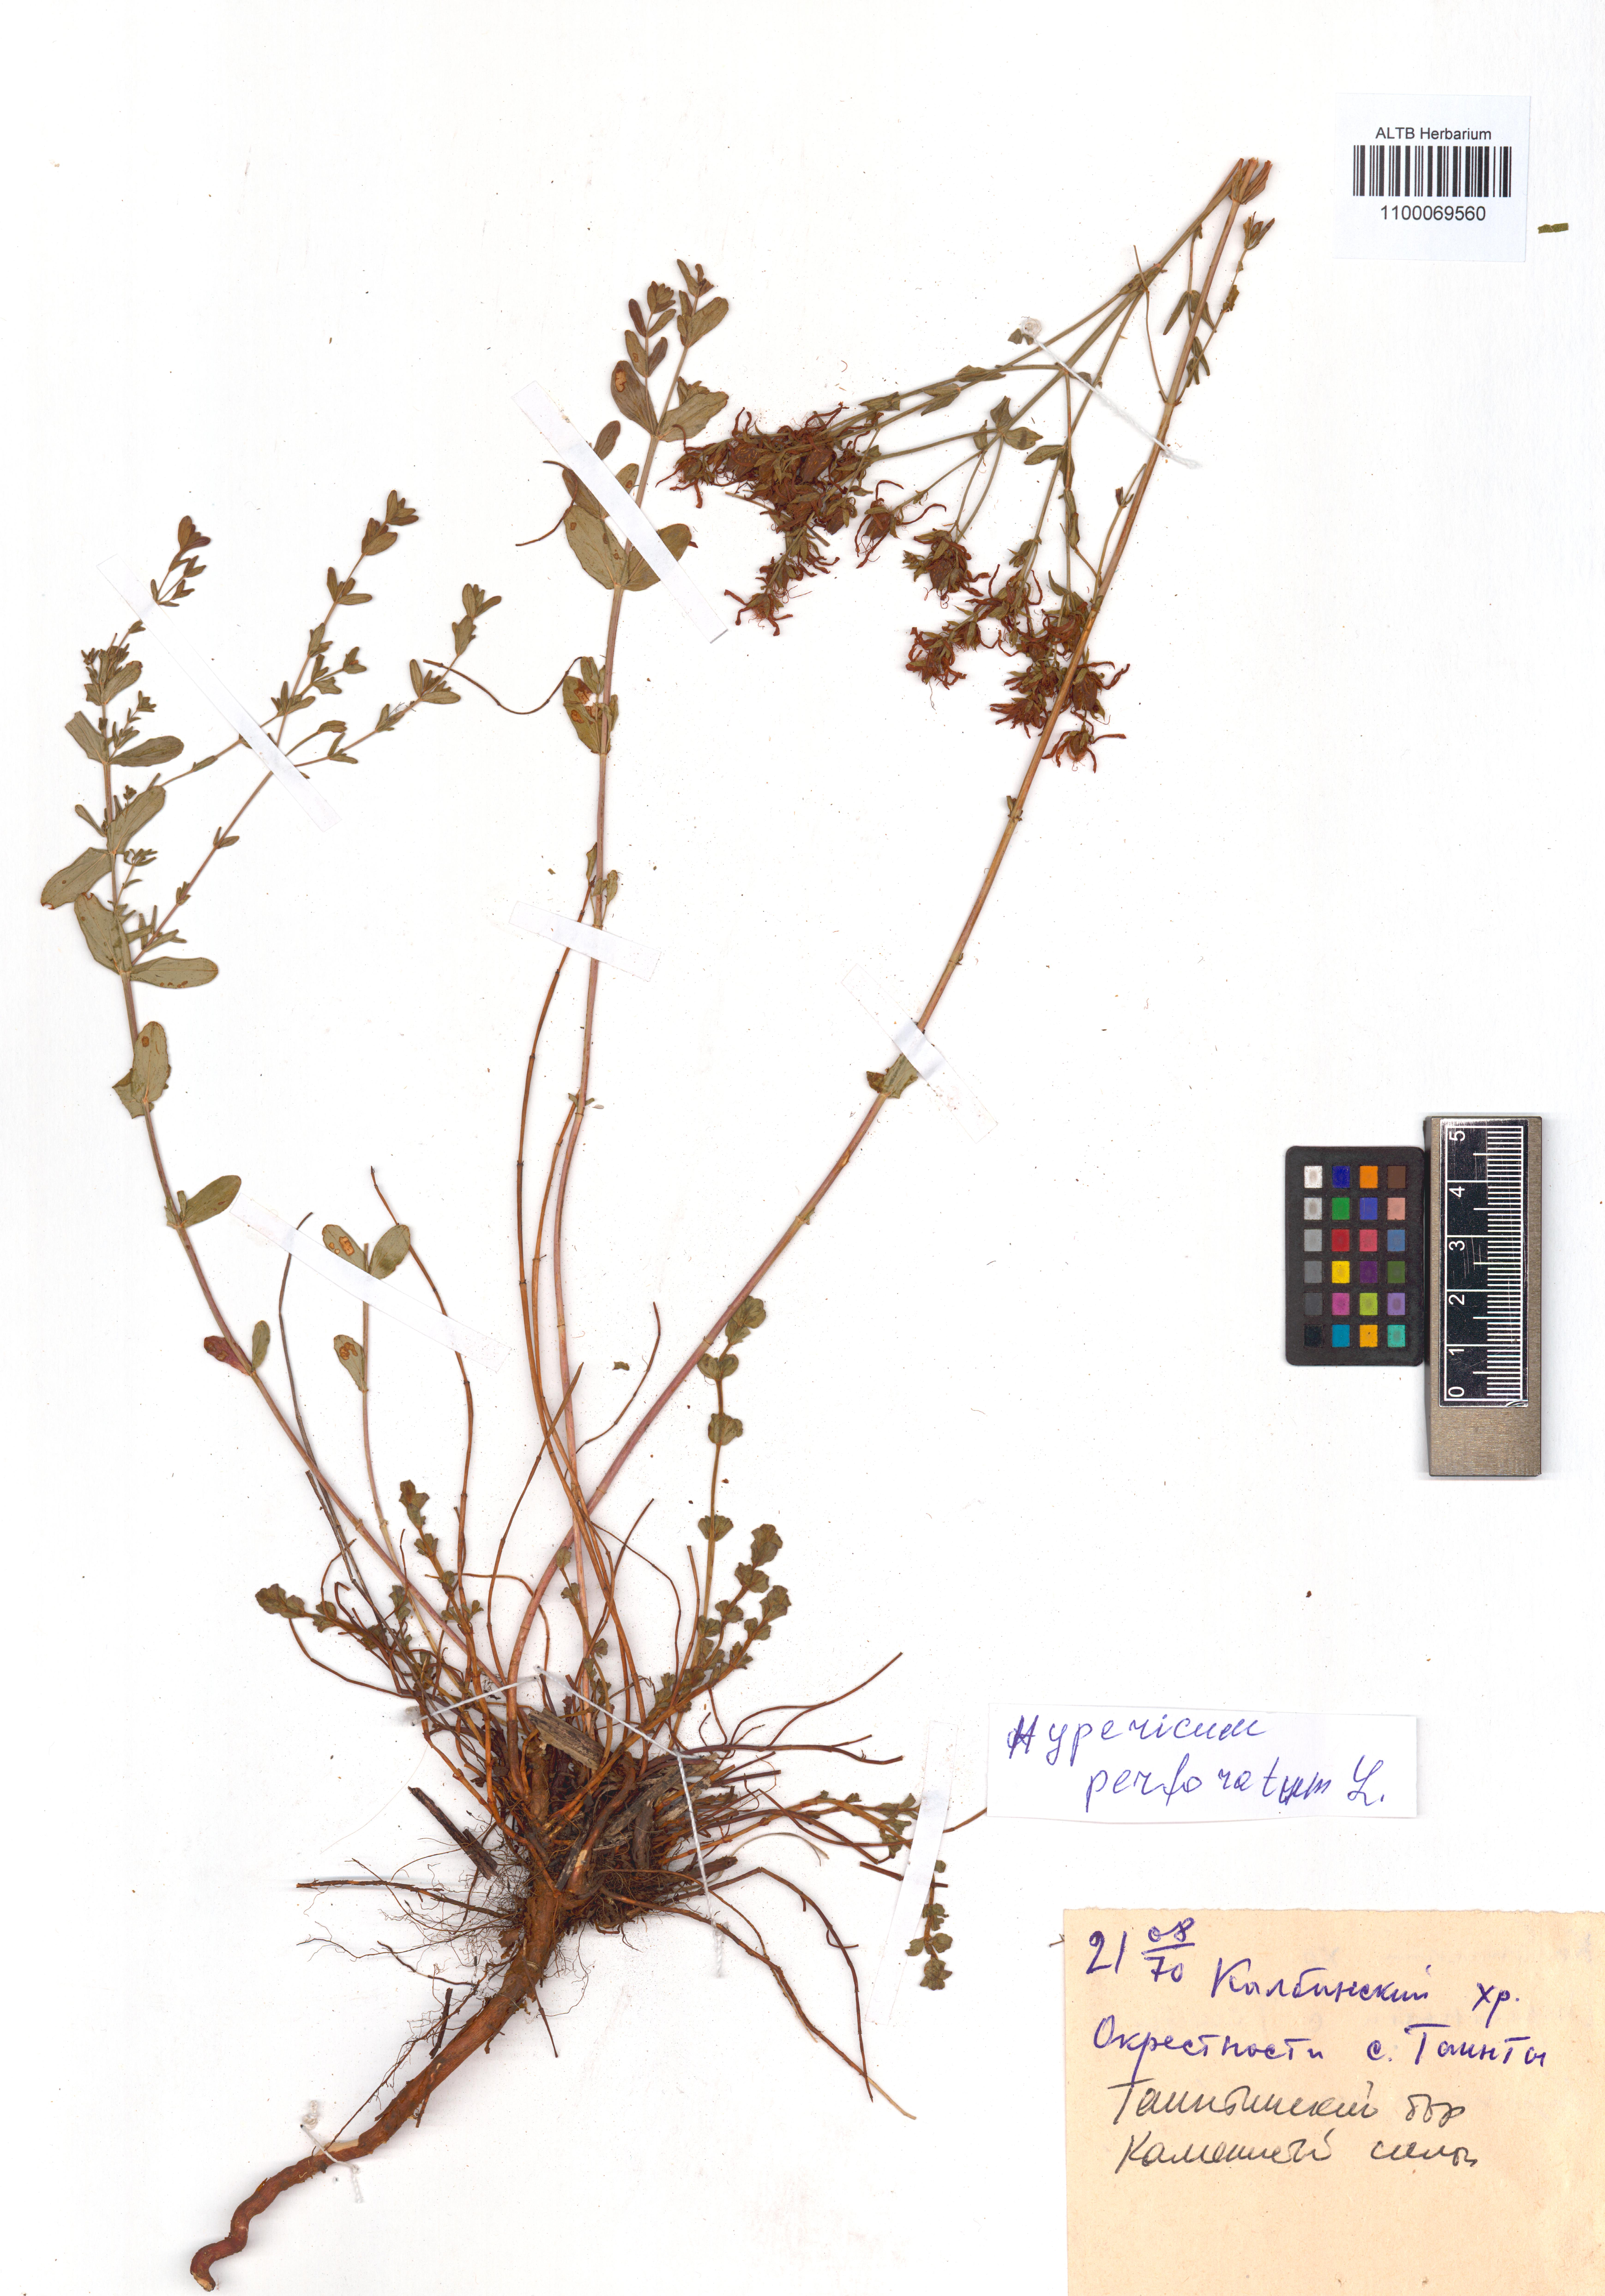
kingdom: Plantae
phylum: Tracheophyta
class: Magnoliopsida
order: Malpighiales
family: Hypericaceae
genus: Hypericum
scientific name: Hypericum perforatum
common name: Common st. johnswort
